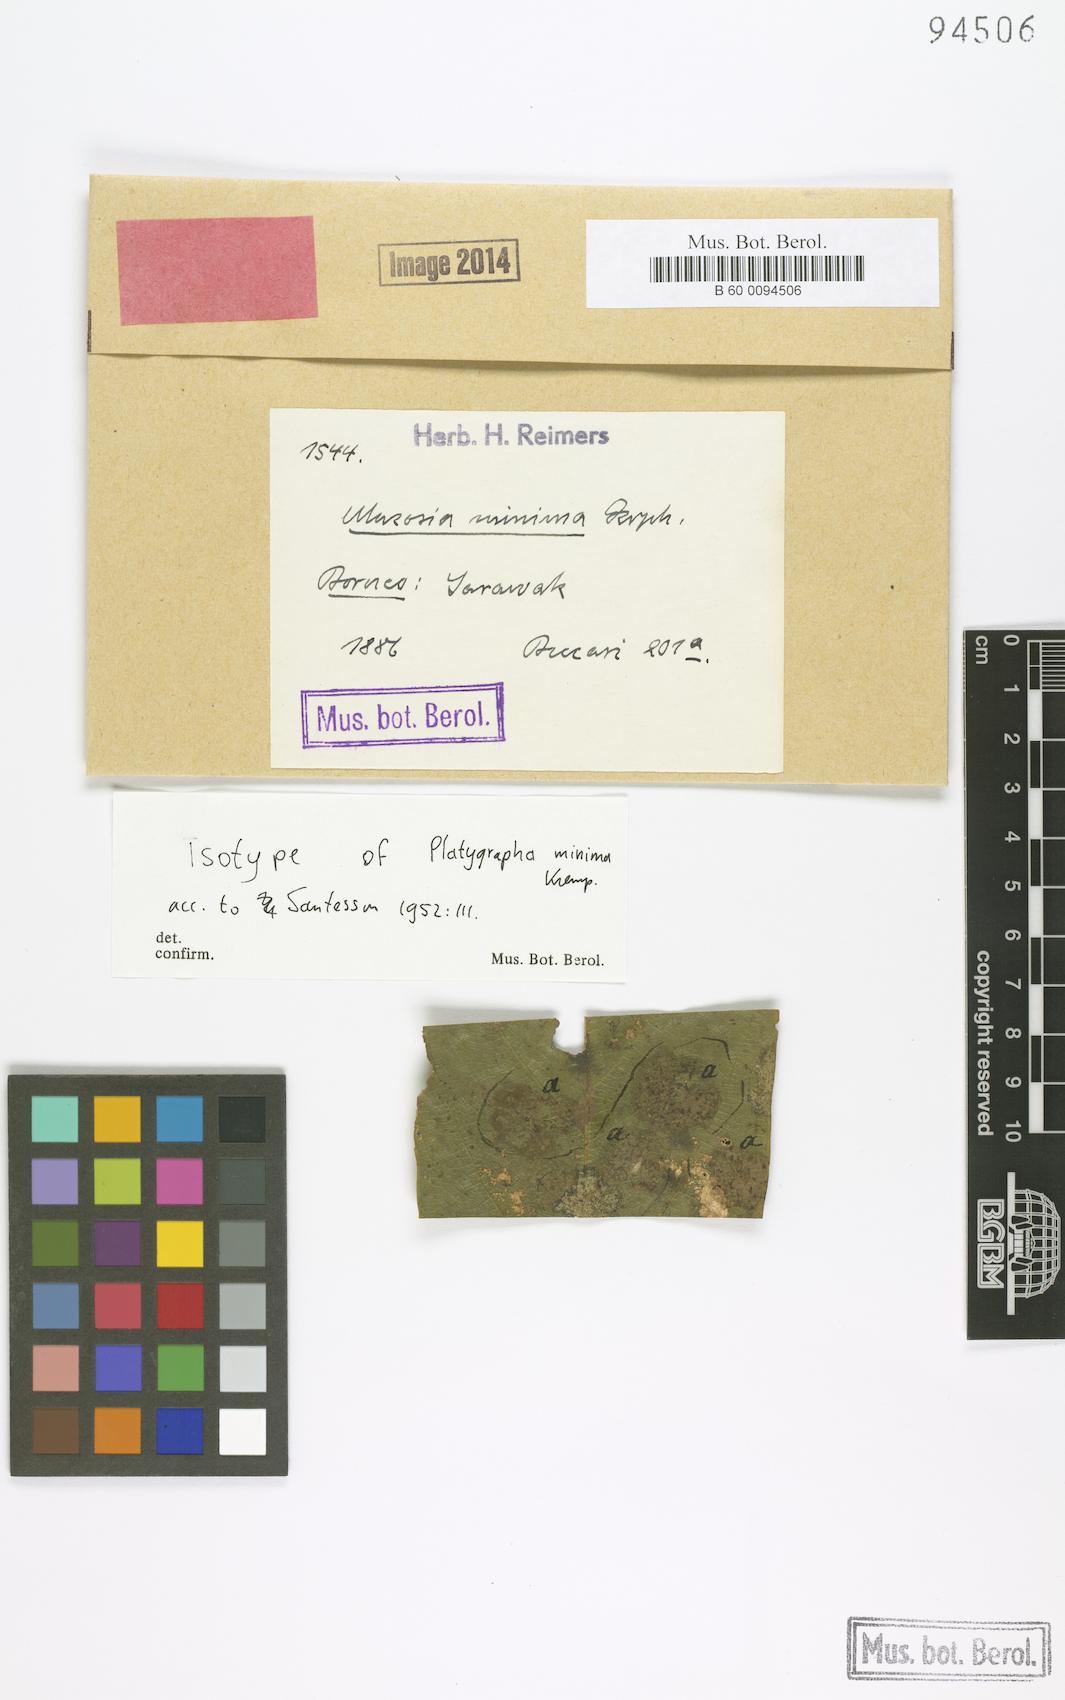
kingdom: Fungi
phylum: Ascomycota
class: Lecanoromycetes
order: Ostropales
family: Graphidaceae
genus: Platygrapha
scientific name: Platygrapha
